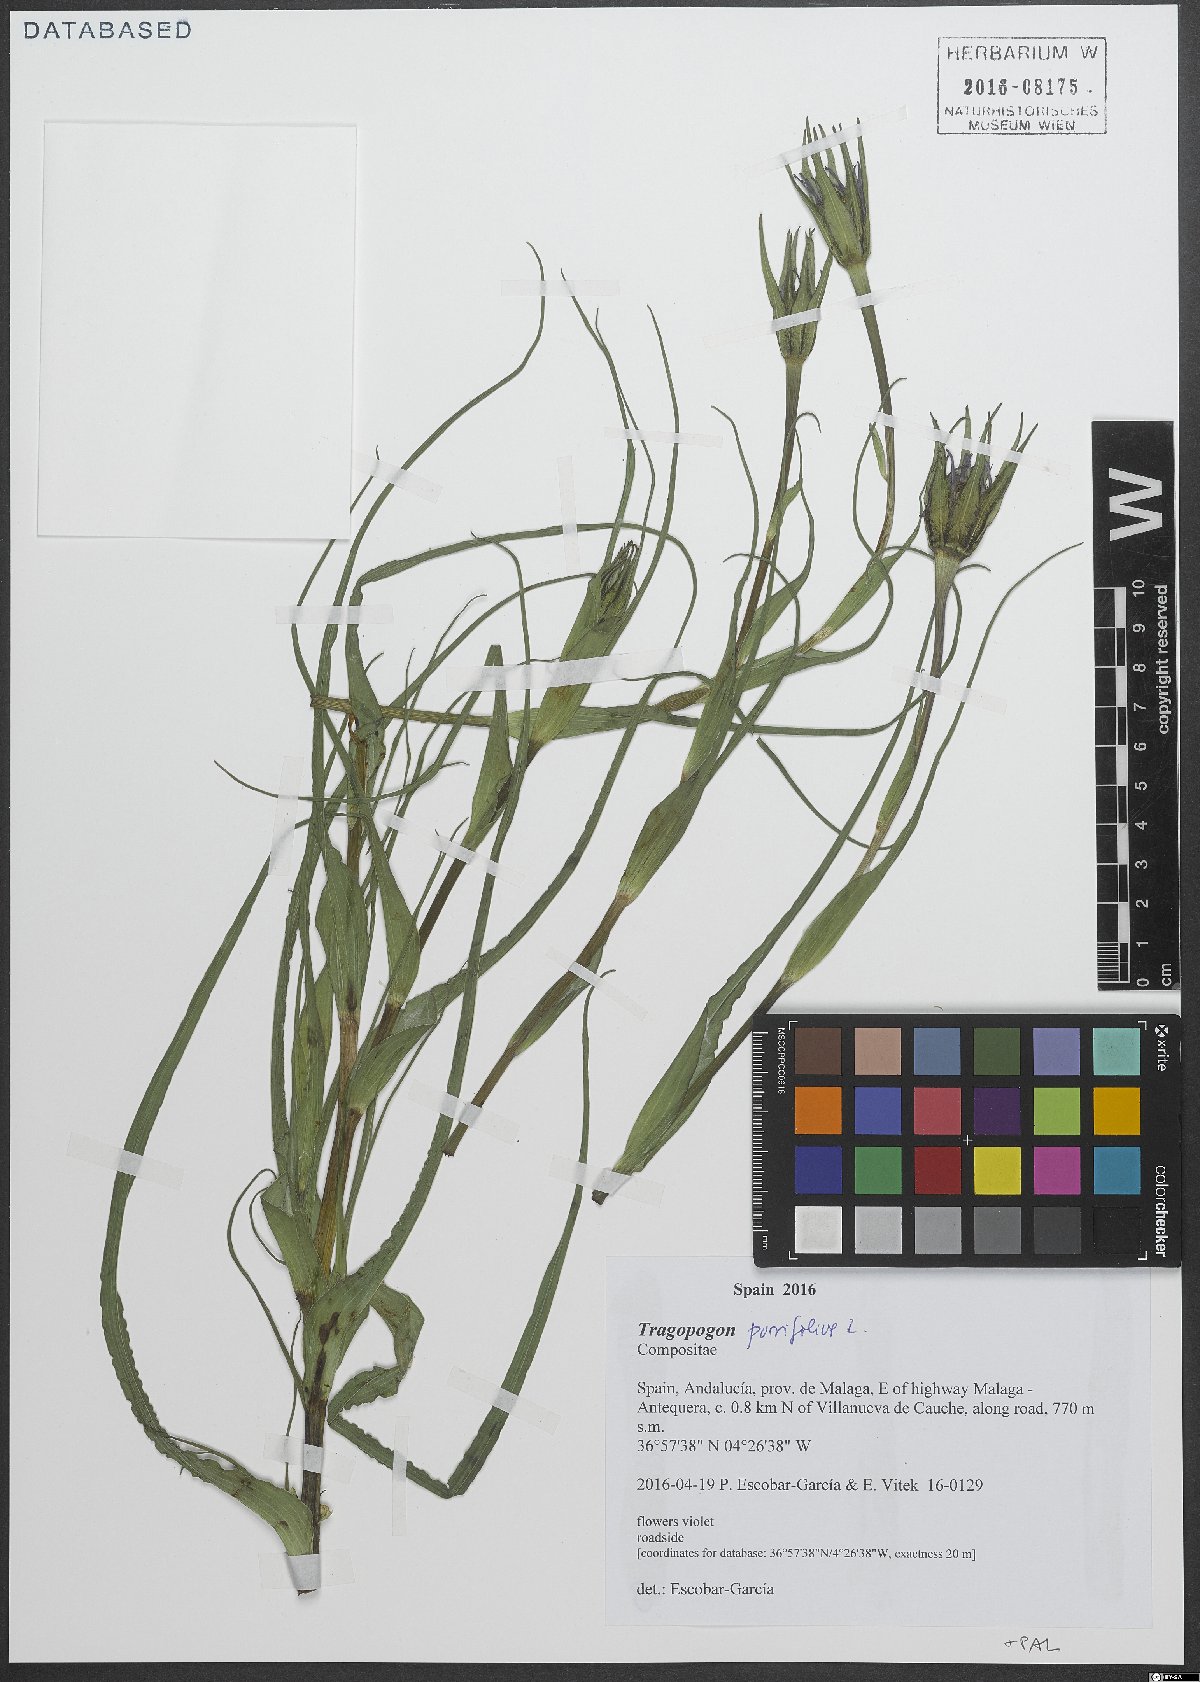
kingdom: Plantae
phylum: Tracheophyta
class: Magnoliopsida
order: Asterales
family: Asteraceae
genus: Tragopogon
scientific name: Tragopogon porrifolius
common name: Salsify
